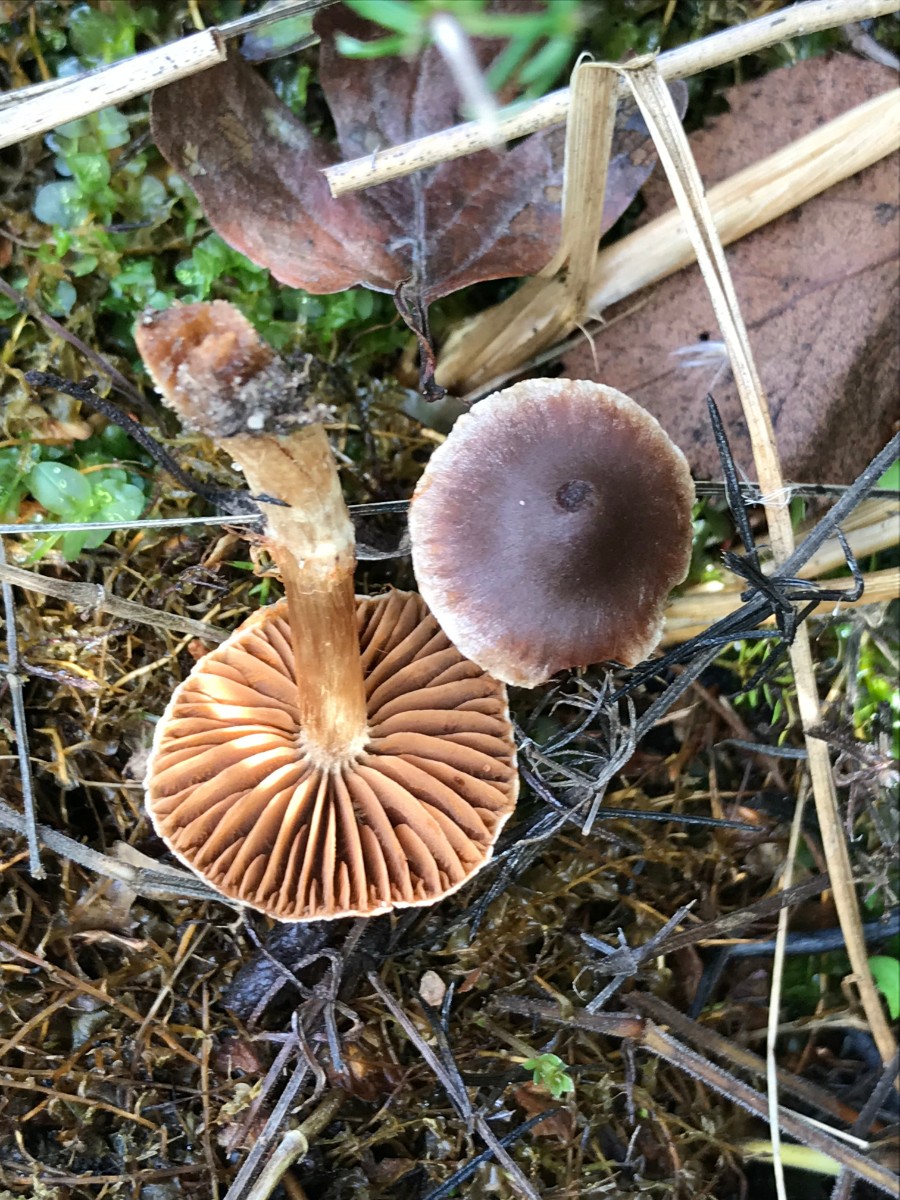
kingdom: Fungi
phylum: Basidiomycota
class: Agaricomycetes
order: Agaricales
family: Cortinariaceae
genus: Cortinarius
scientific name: Cortinarius
